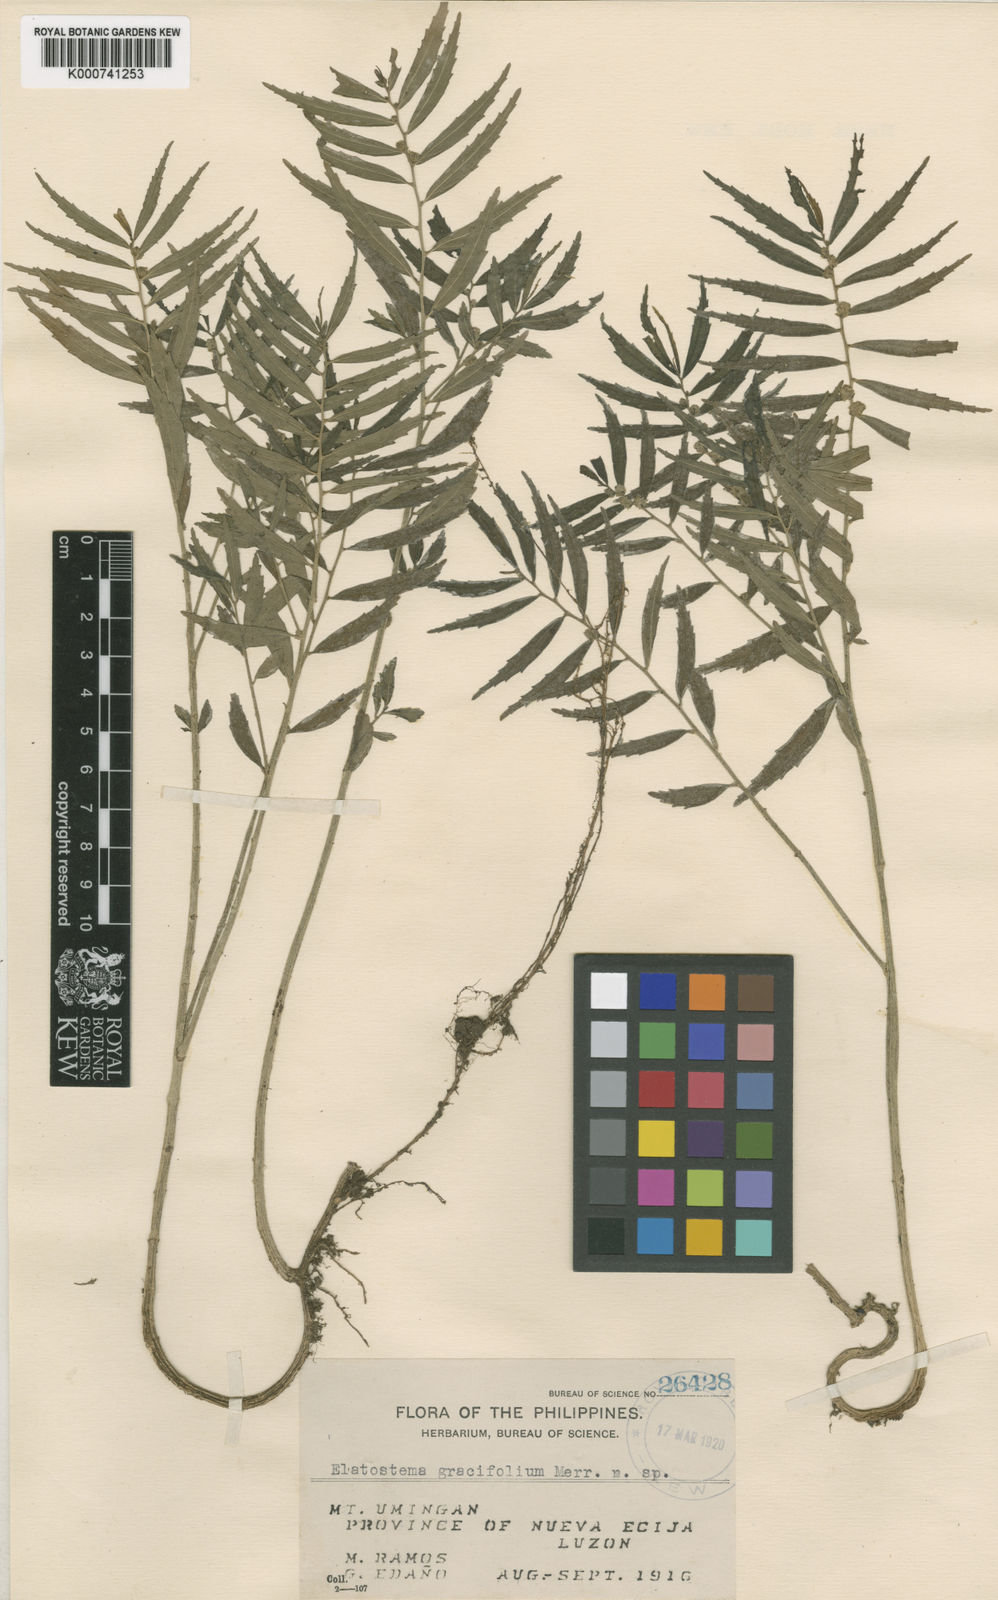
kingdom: Plantae
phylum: Tracheophyta
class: Magnoliopsida
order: Rosales
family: Urticaceae
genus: Elatostema
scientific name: Elatostema gracilifolium
